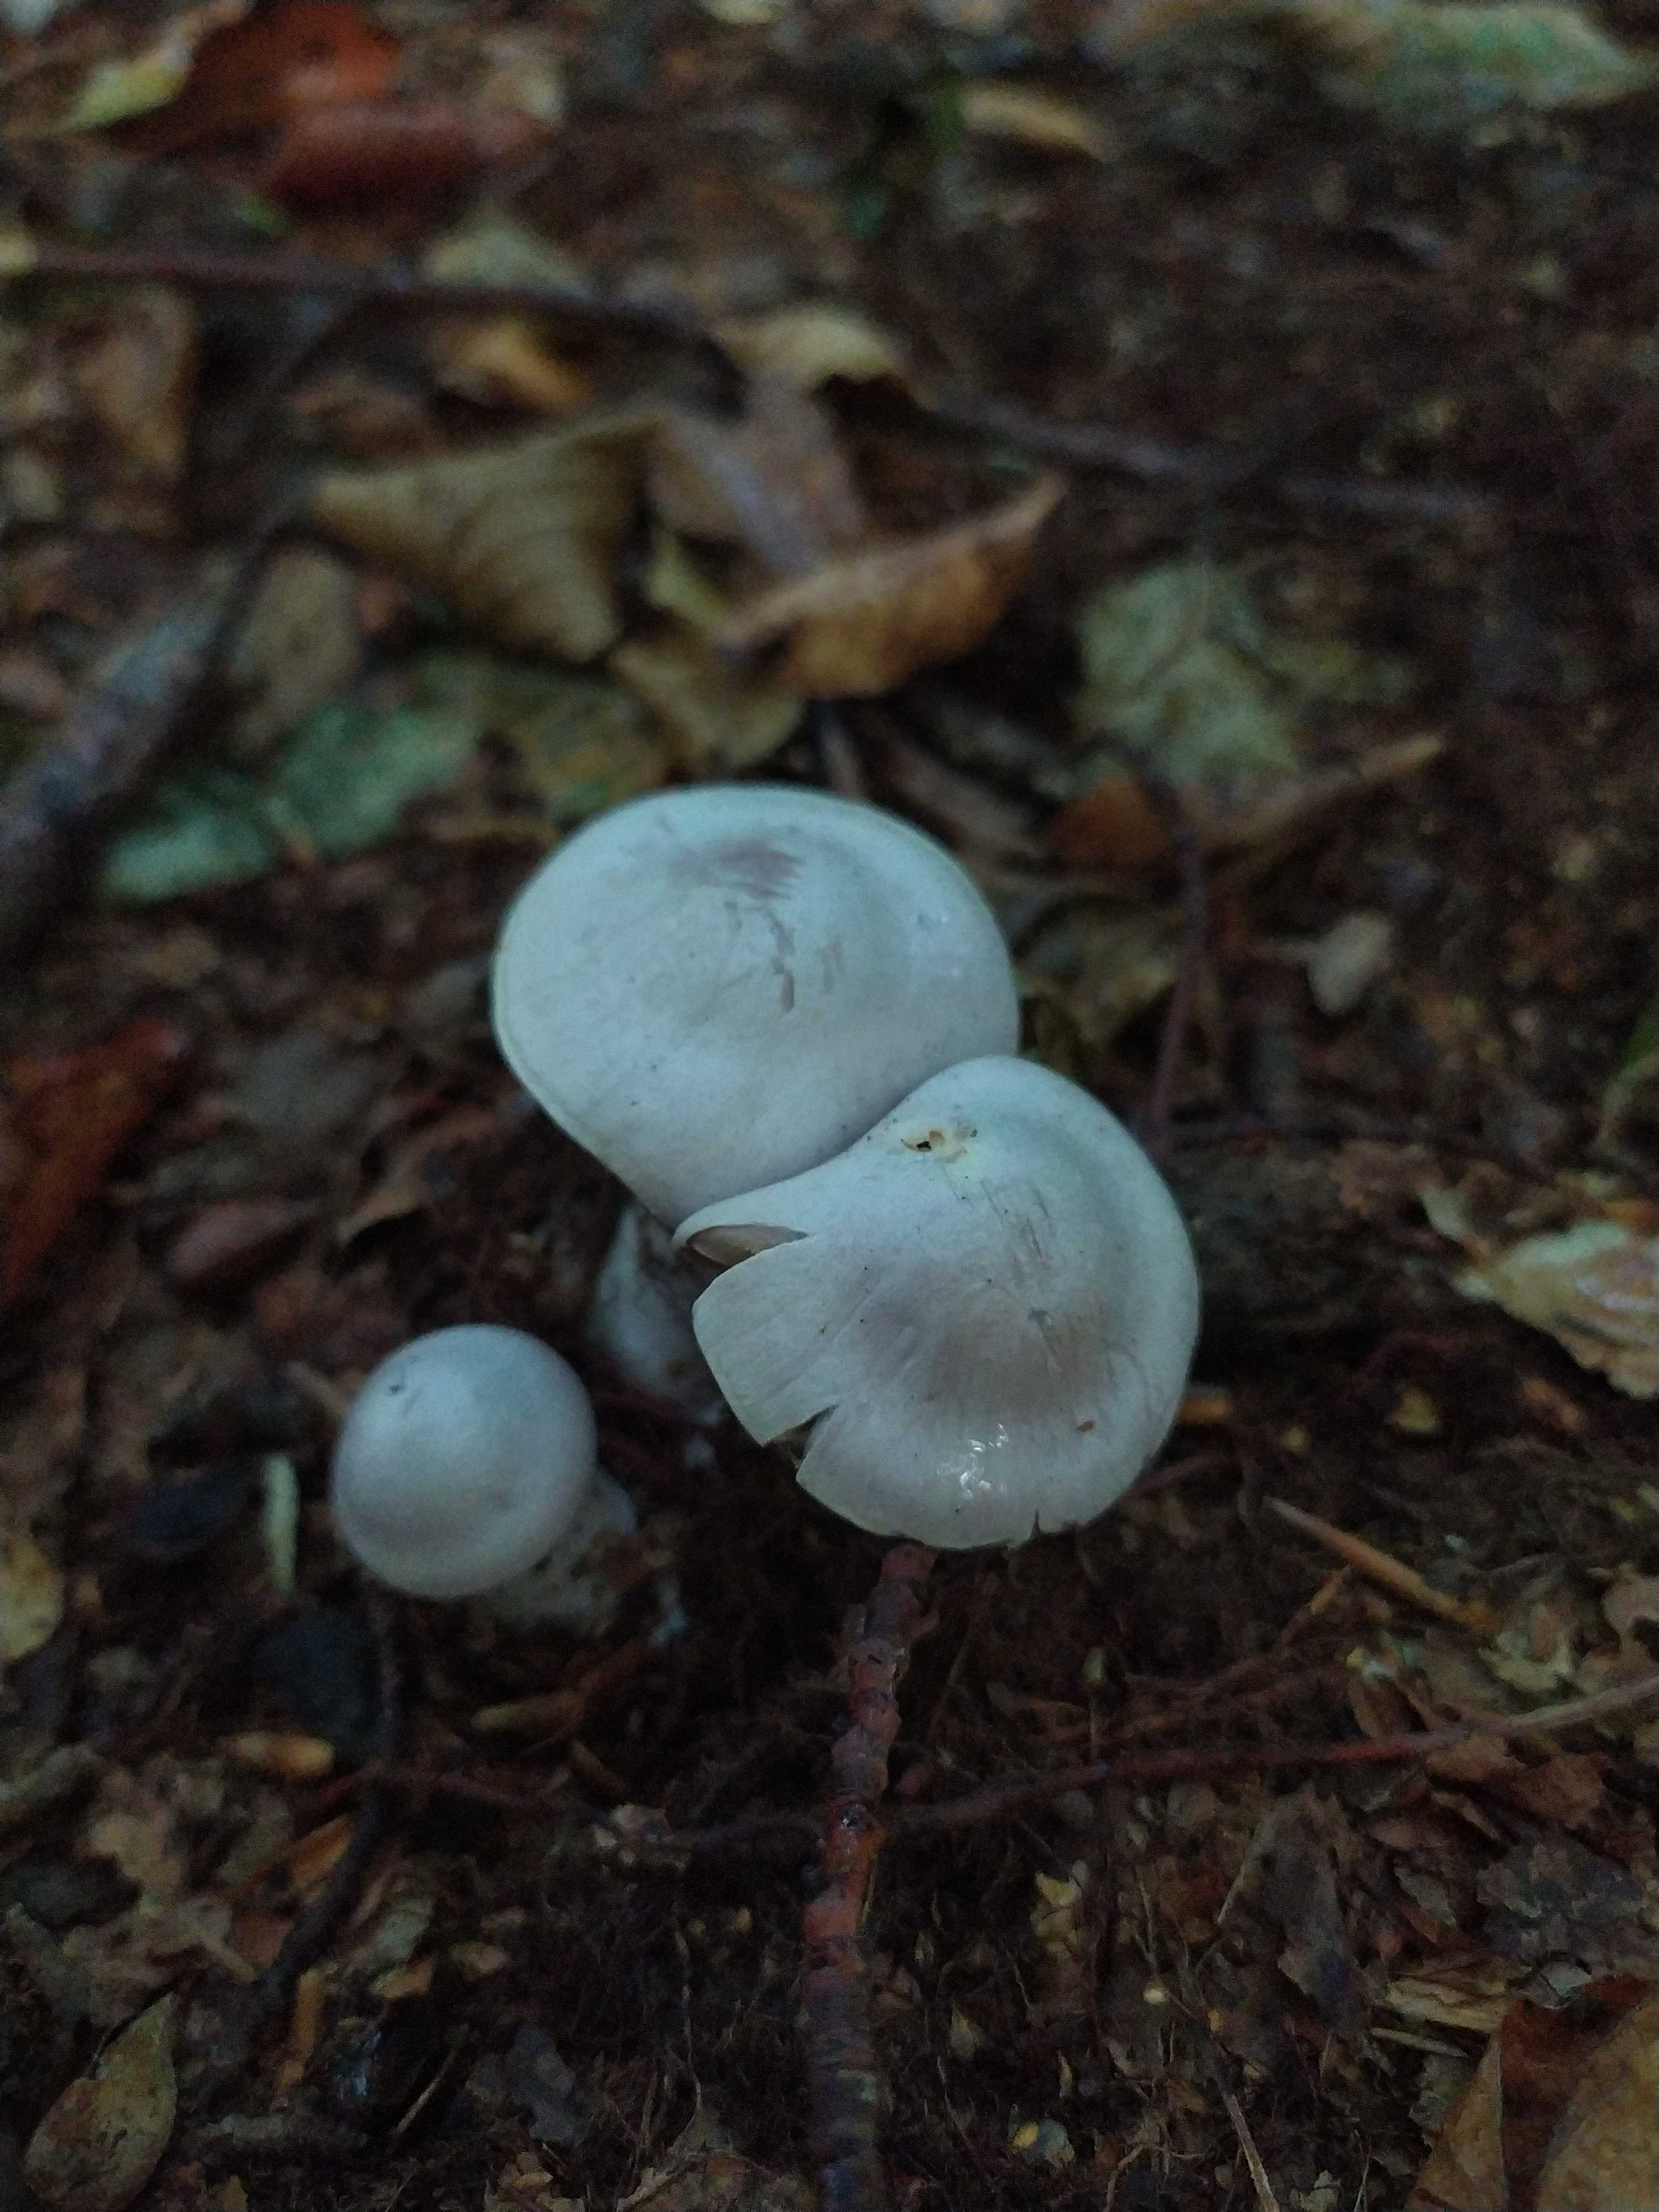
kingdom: Fungi
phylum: Basidiomycota
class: Agaricomycetes
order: Agaricales
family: Cortinariaceae
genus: Cortinarius
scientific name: Cortinarius alboviolaceus
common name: lysviolet slørhat
